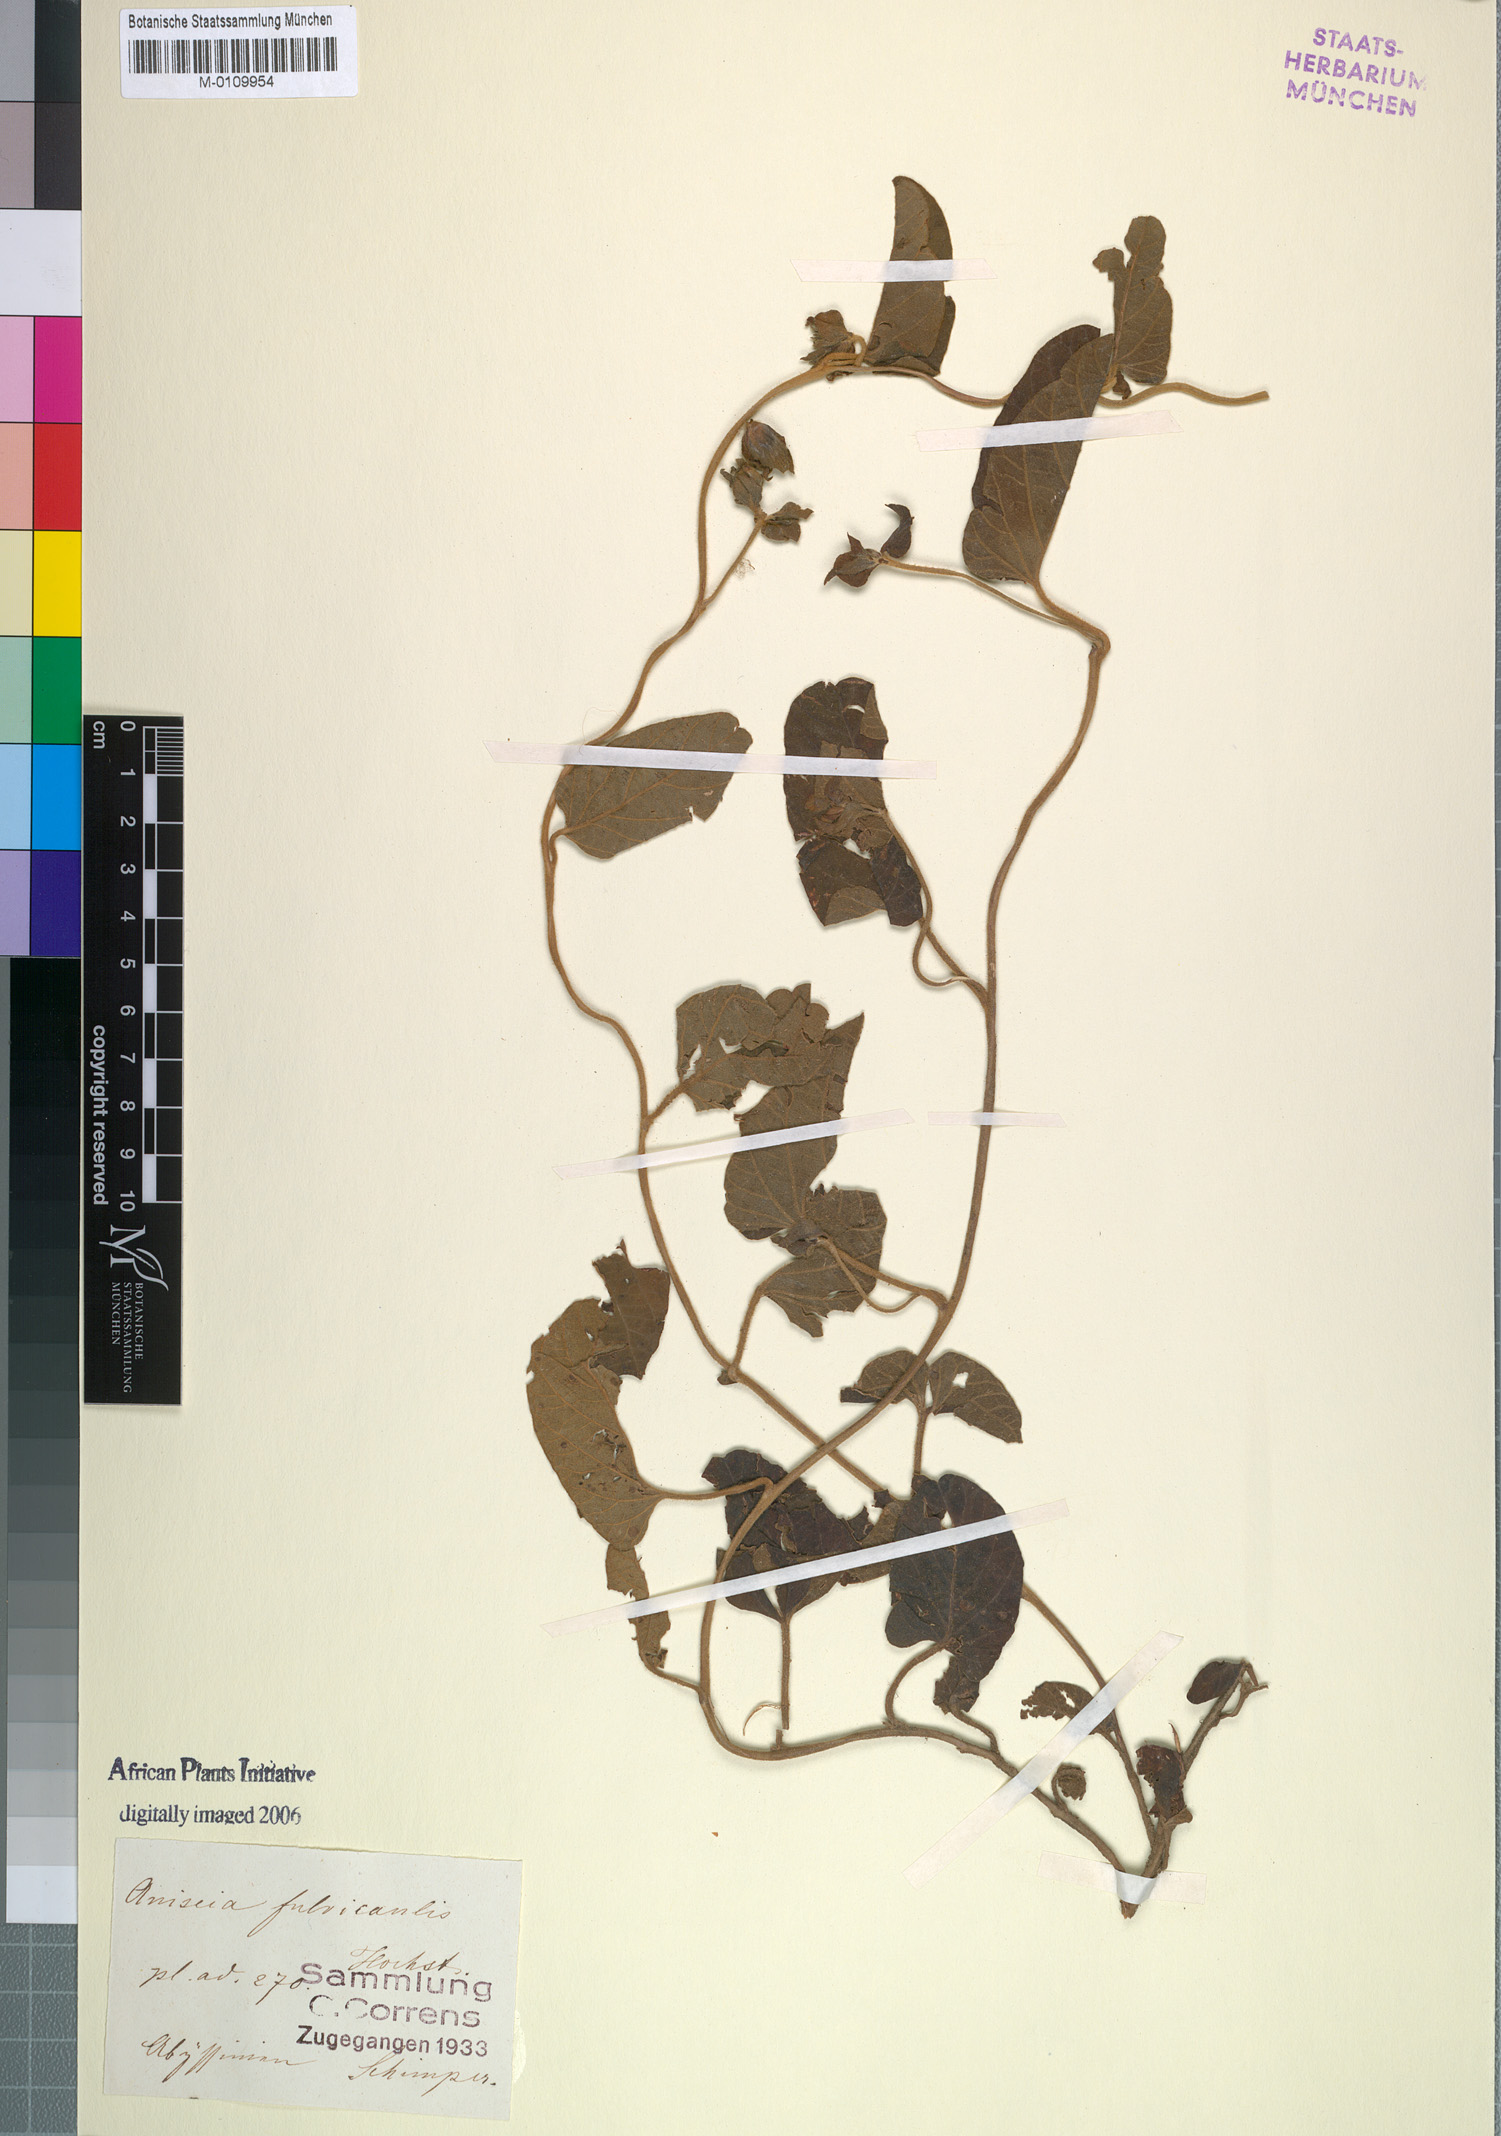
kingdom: Plantae
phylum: Tracheophyta
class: Magnoliopsida
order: Solanales
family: Convolvulaceae
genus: Ipomoea
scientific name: Ipomoea fulvicaulis
